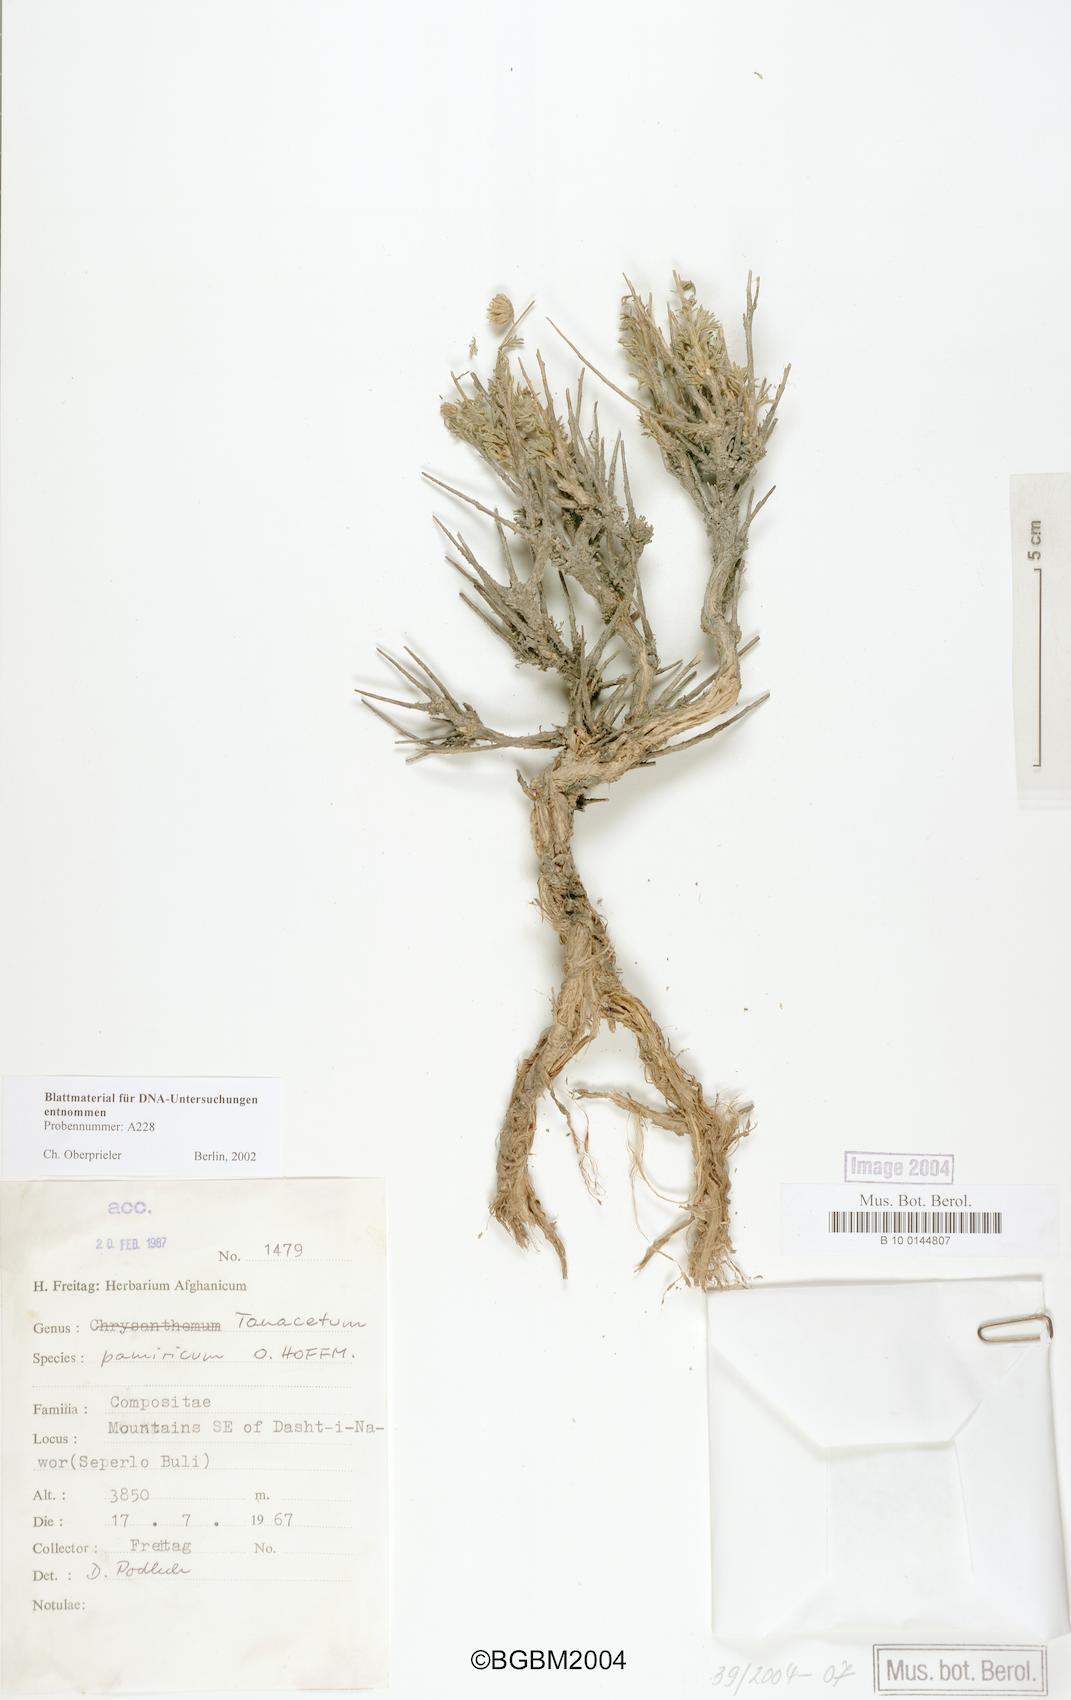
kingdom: Plantae
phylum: Tracheophyta
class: Magnoliopsida
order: Asterales
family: Asteraceae
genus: Xylanthemum
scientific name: Xylanthemum pamiricum
